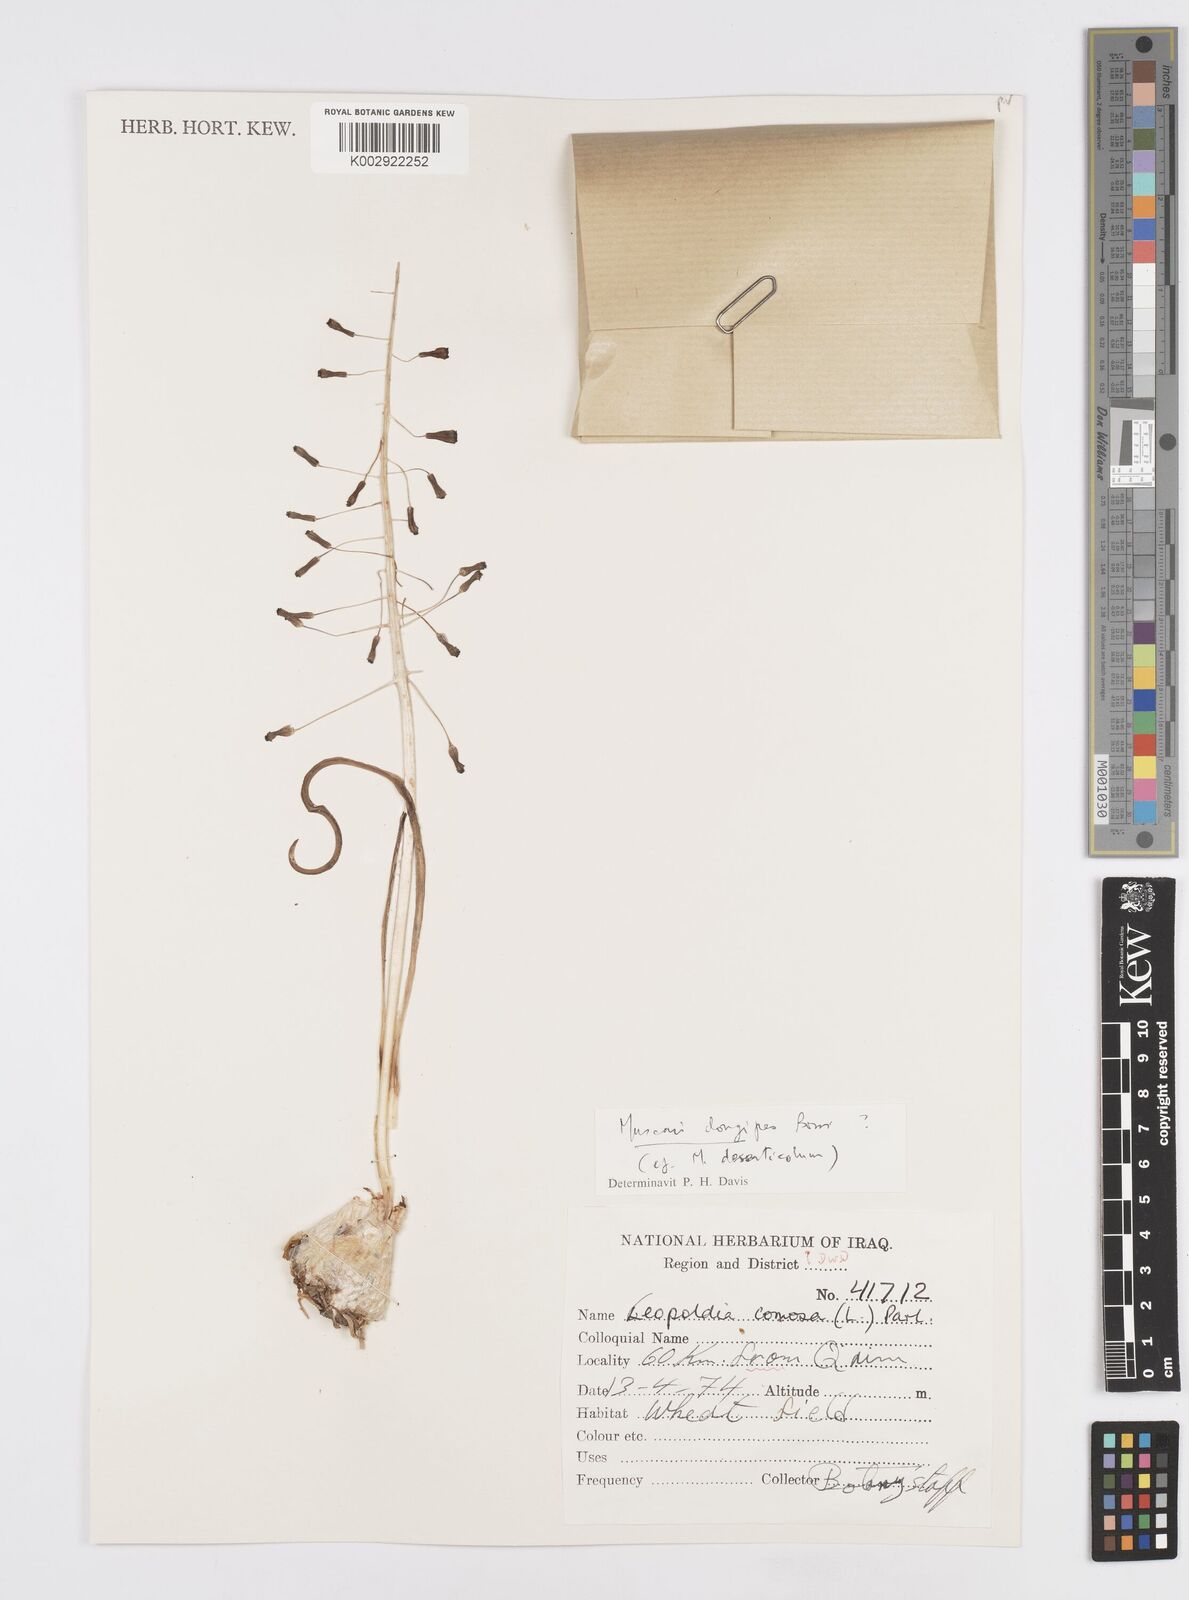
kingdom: Plantae
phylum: Tracheophyta
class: Liliopsida
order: Asparagales
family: Asparagaceae
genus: Muscari
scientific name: Muscari comosum
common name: Tassel hyacinth
